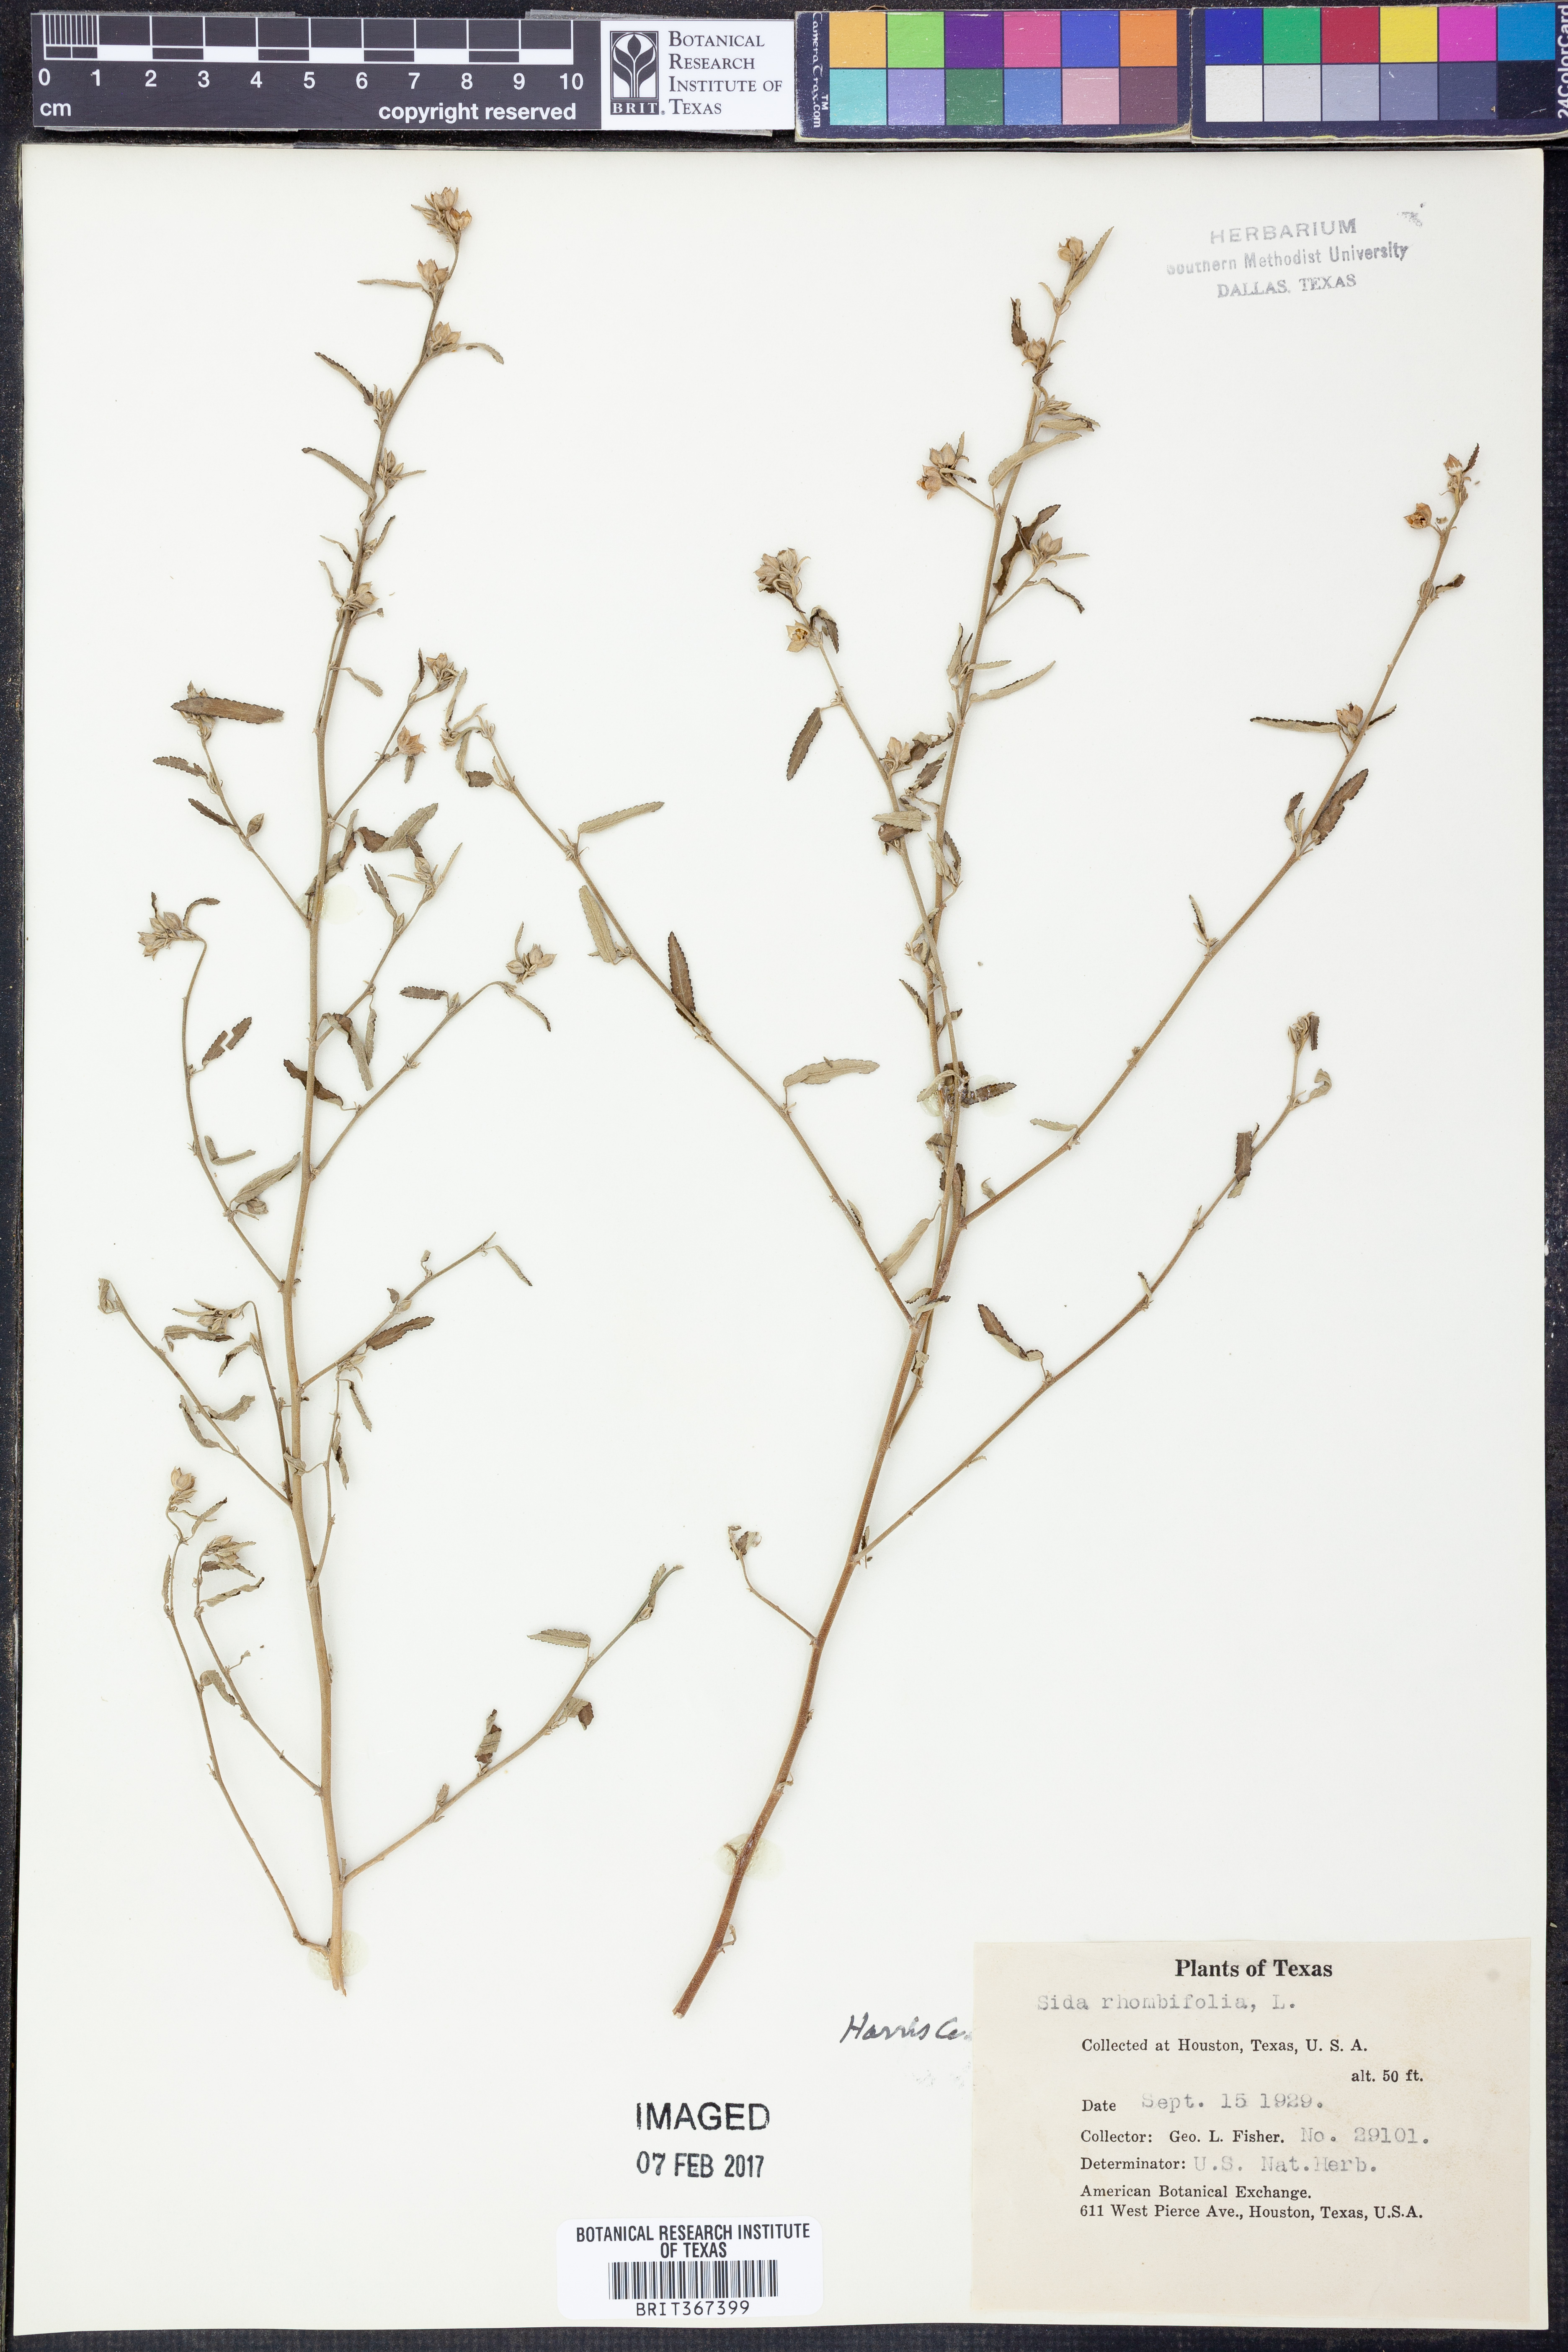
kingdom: Plantae
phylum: Tracheophyta
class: Magnoliopsida
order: Malvales
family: Malvaceae
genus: Sida
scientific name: Sida rhombifolia
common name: Queensland-hemp
